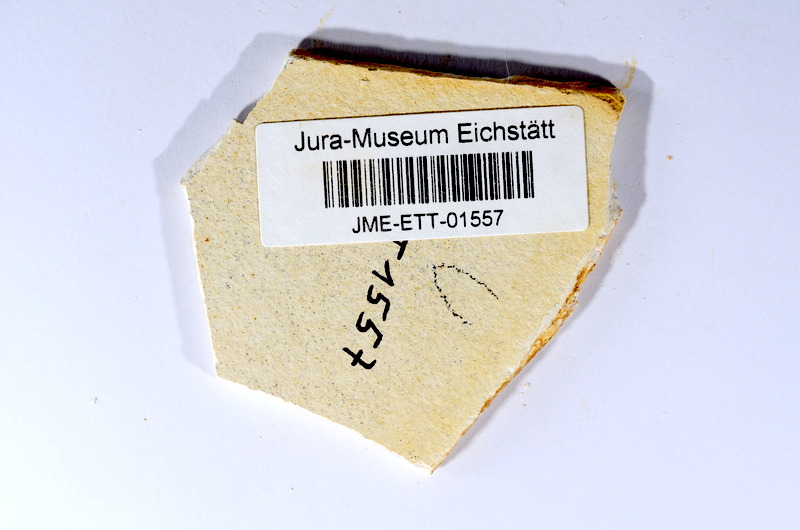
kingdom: Animalia
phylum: Chordata
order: Salmoniformes
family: Orthogonikleithridae
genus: Orthogonikleithrus
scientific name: Orthogonikleithrus hoelli
